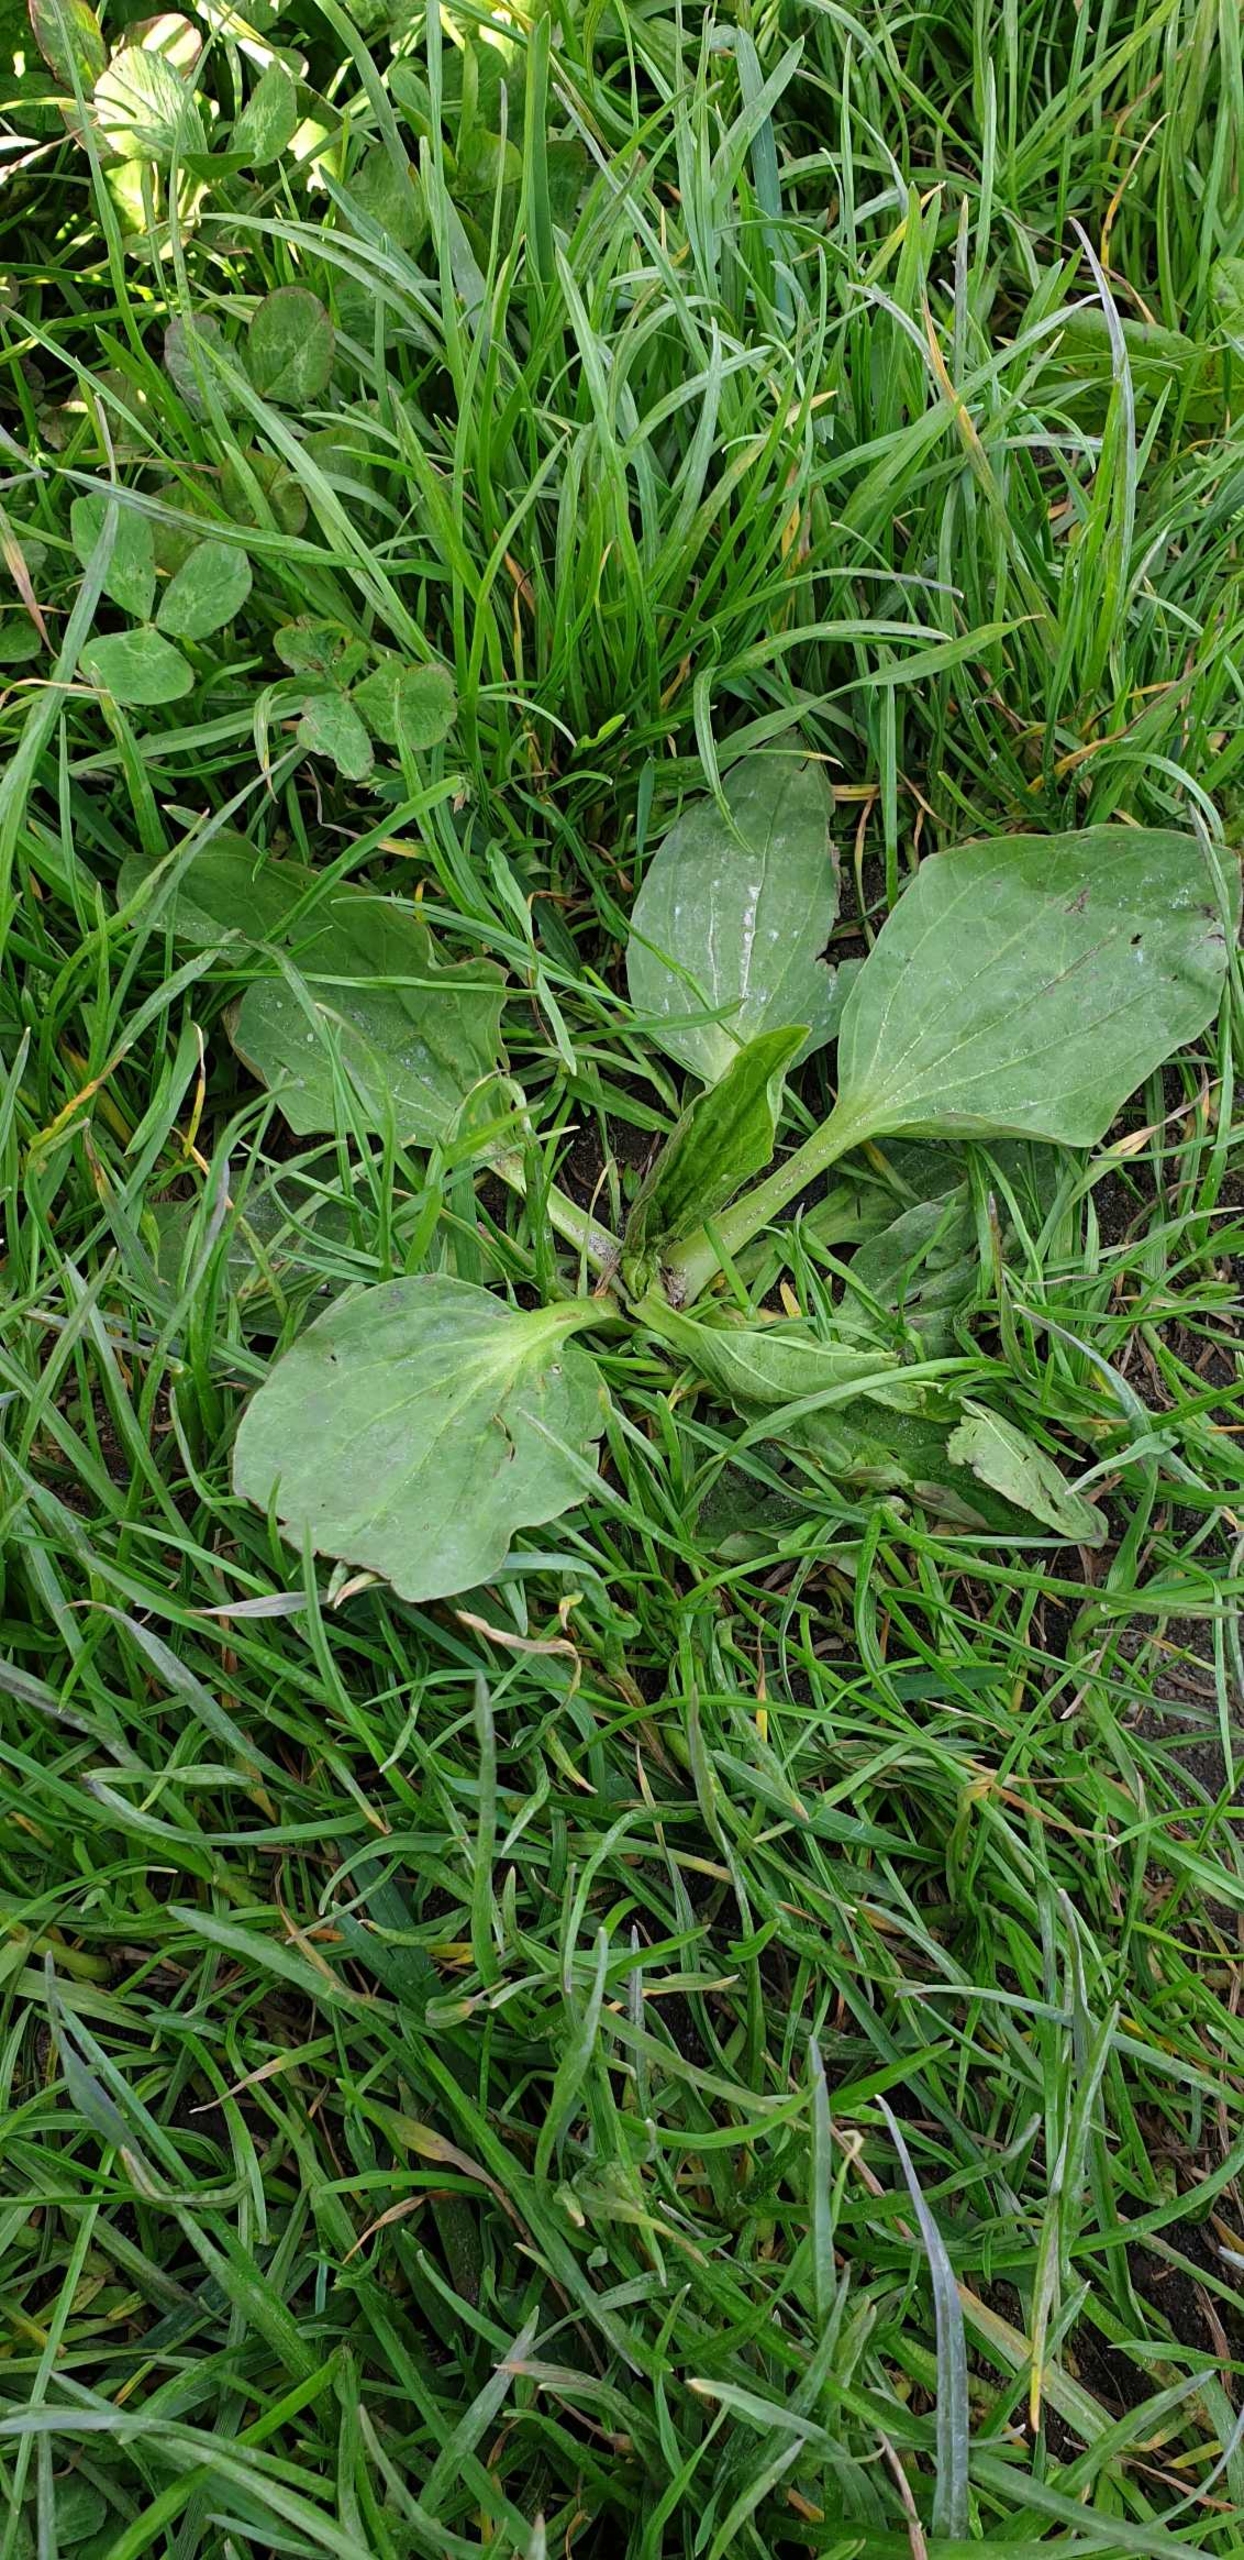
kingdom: Plantae
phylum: Tracheophyta
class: Magnoliopsida
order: Lamiales
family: Plantaginaceae
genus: Plantago
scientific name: Plantago major
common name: Glat vejbred
